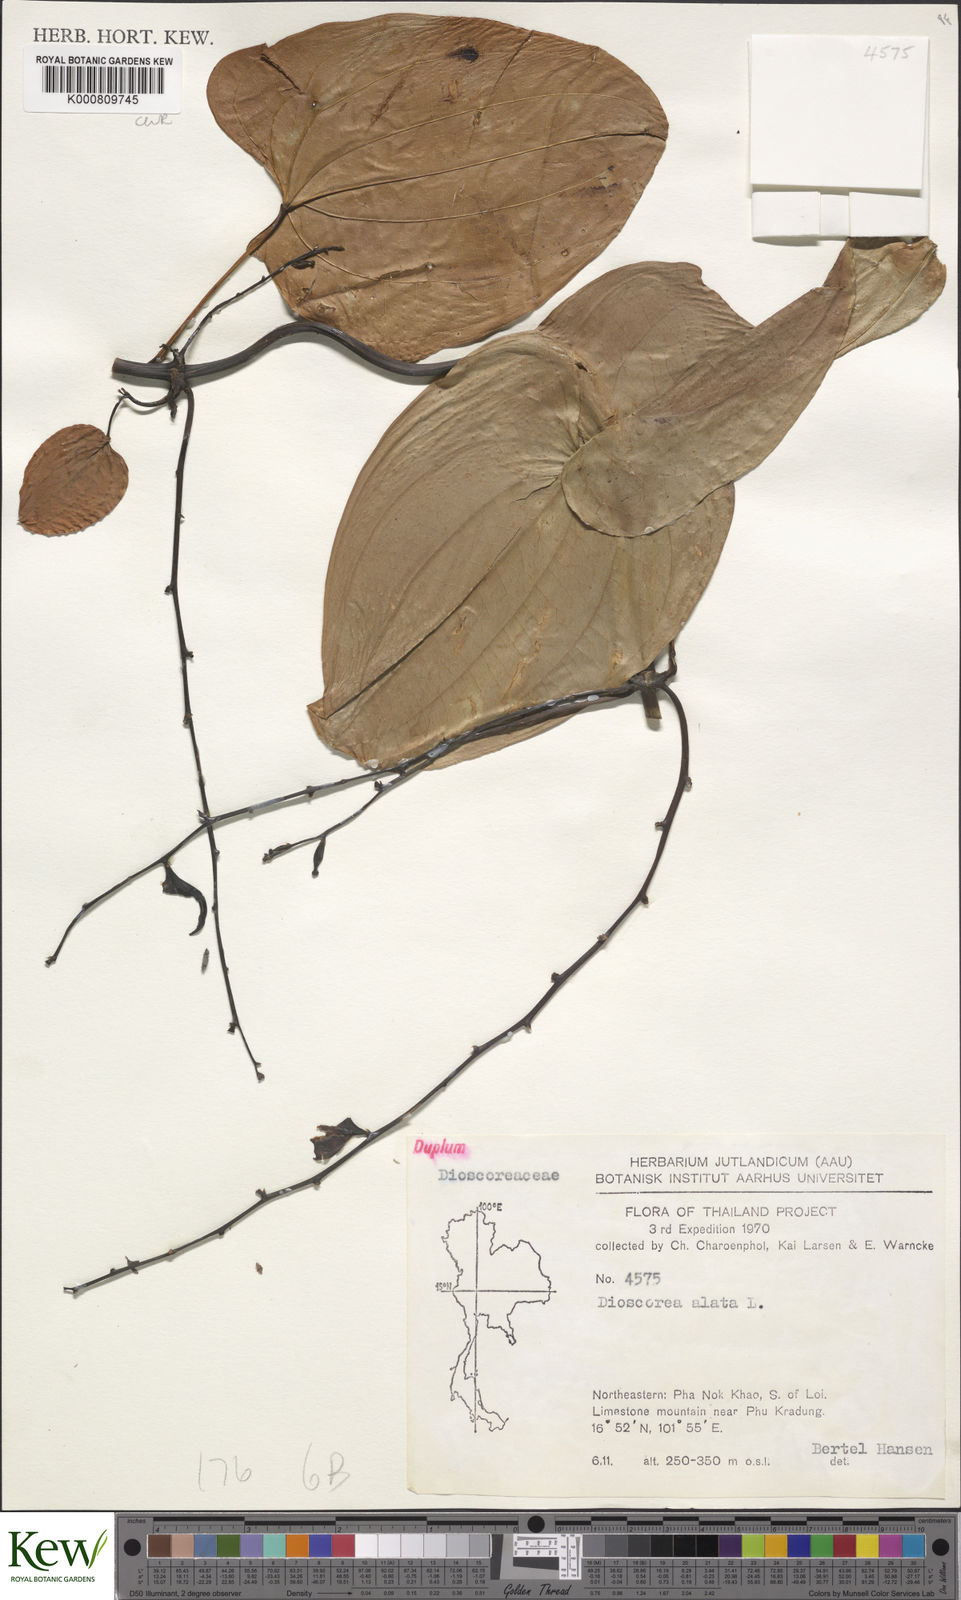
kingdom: Plantae
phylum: Tracheophyta
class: Liliopsida
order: Dioscoreales
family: Dioscoreaceae
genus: Dioscorea
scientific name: Dioscorea alata
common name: Water yam
